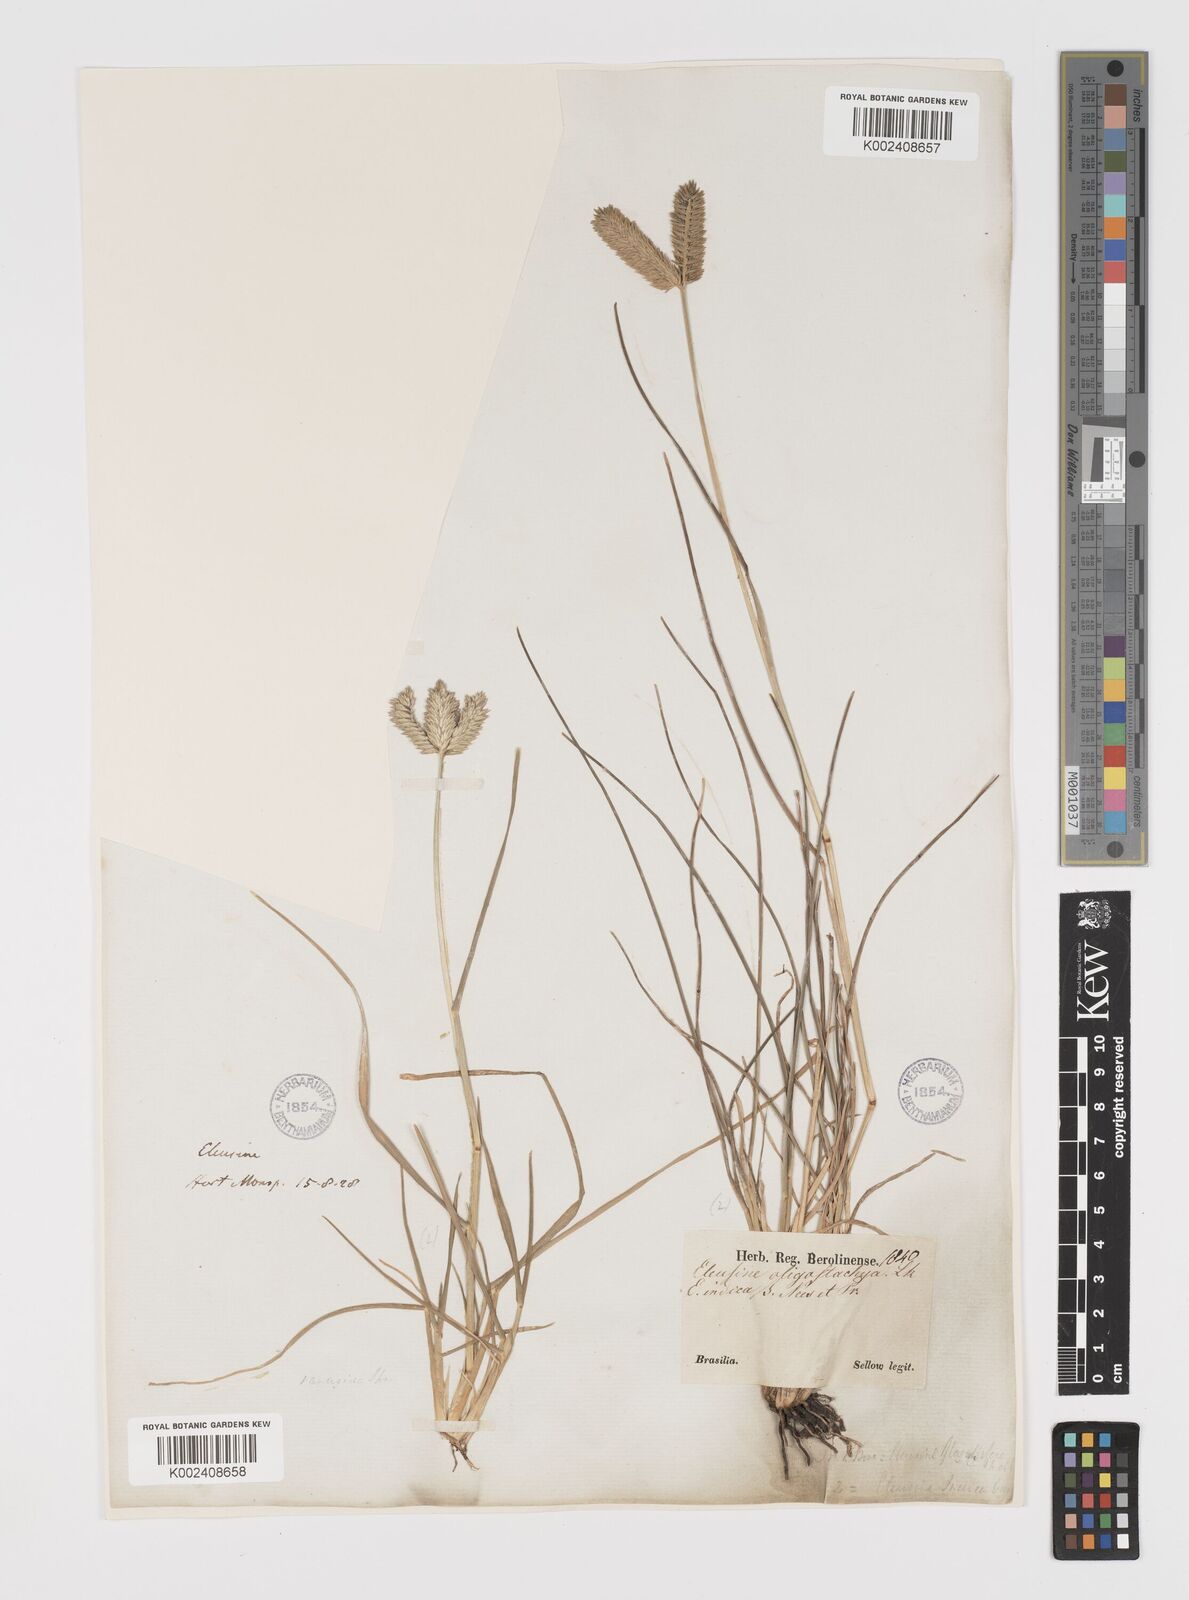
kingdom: Plantae
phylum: Tracheophyta
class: Liliopsida
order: Poales
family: Poaceae
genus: Eleusine
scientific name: Eleusine tristachya
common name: American yard-grass
